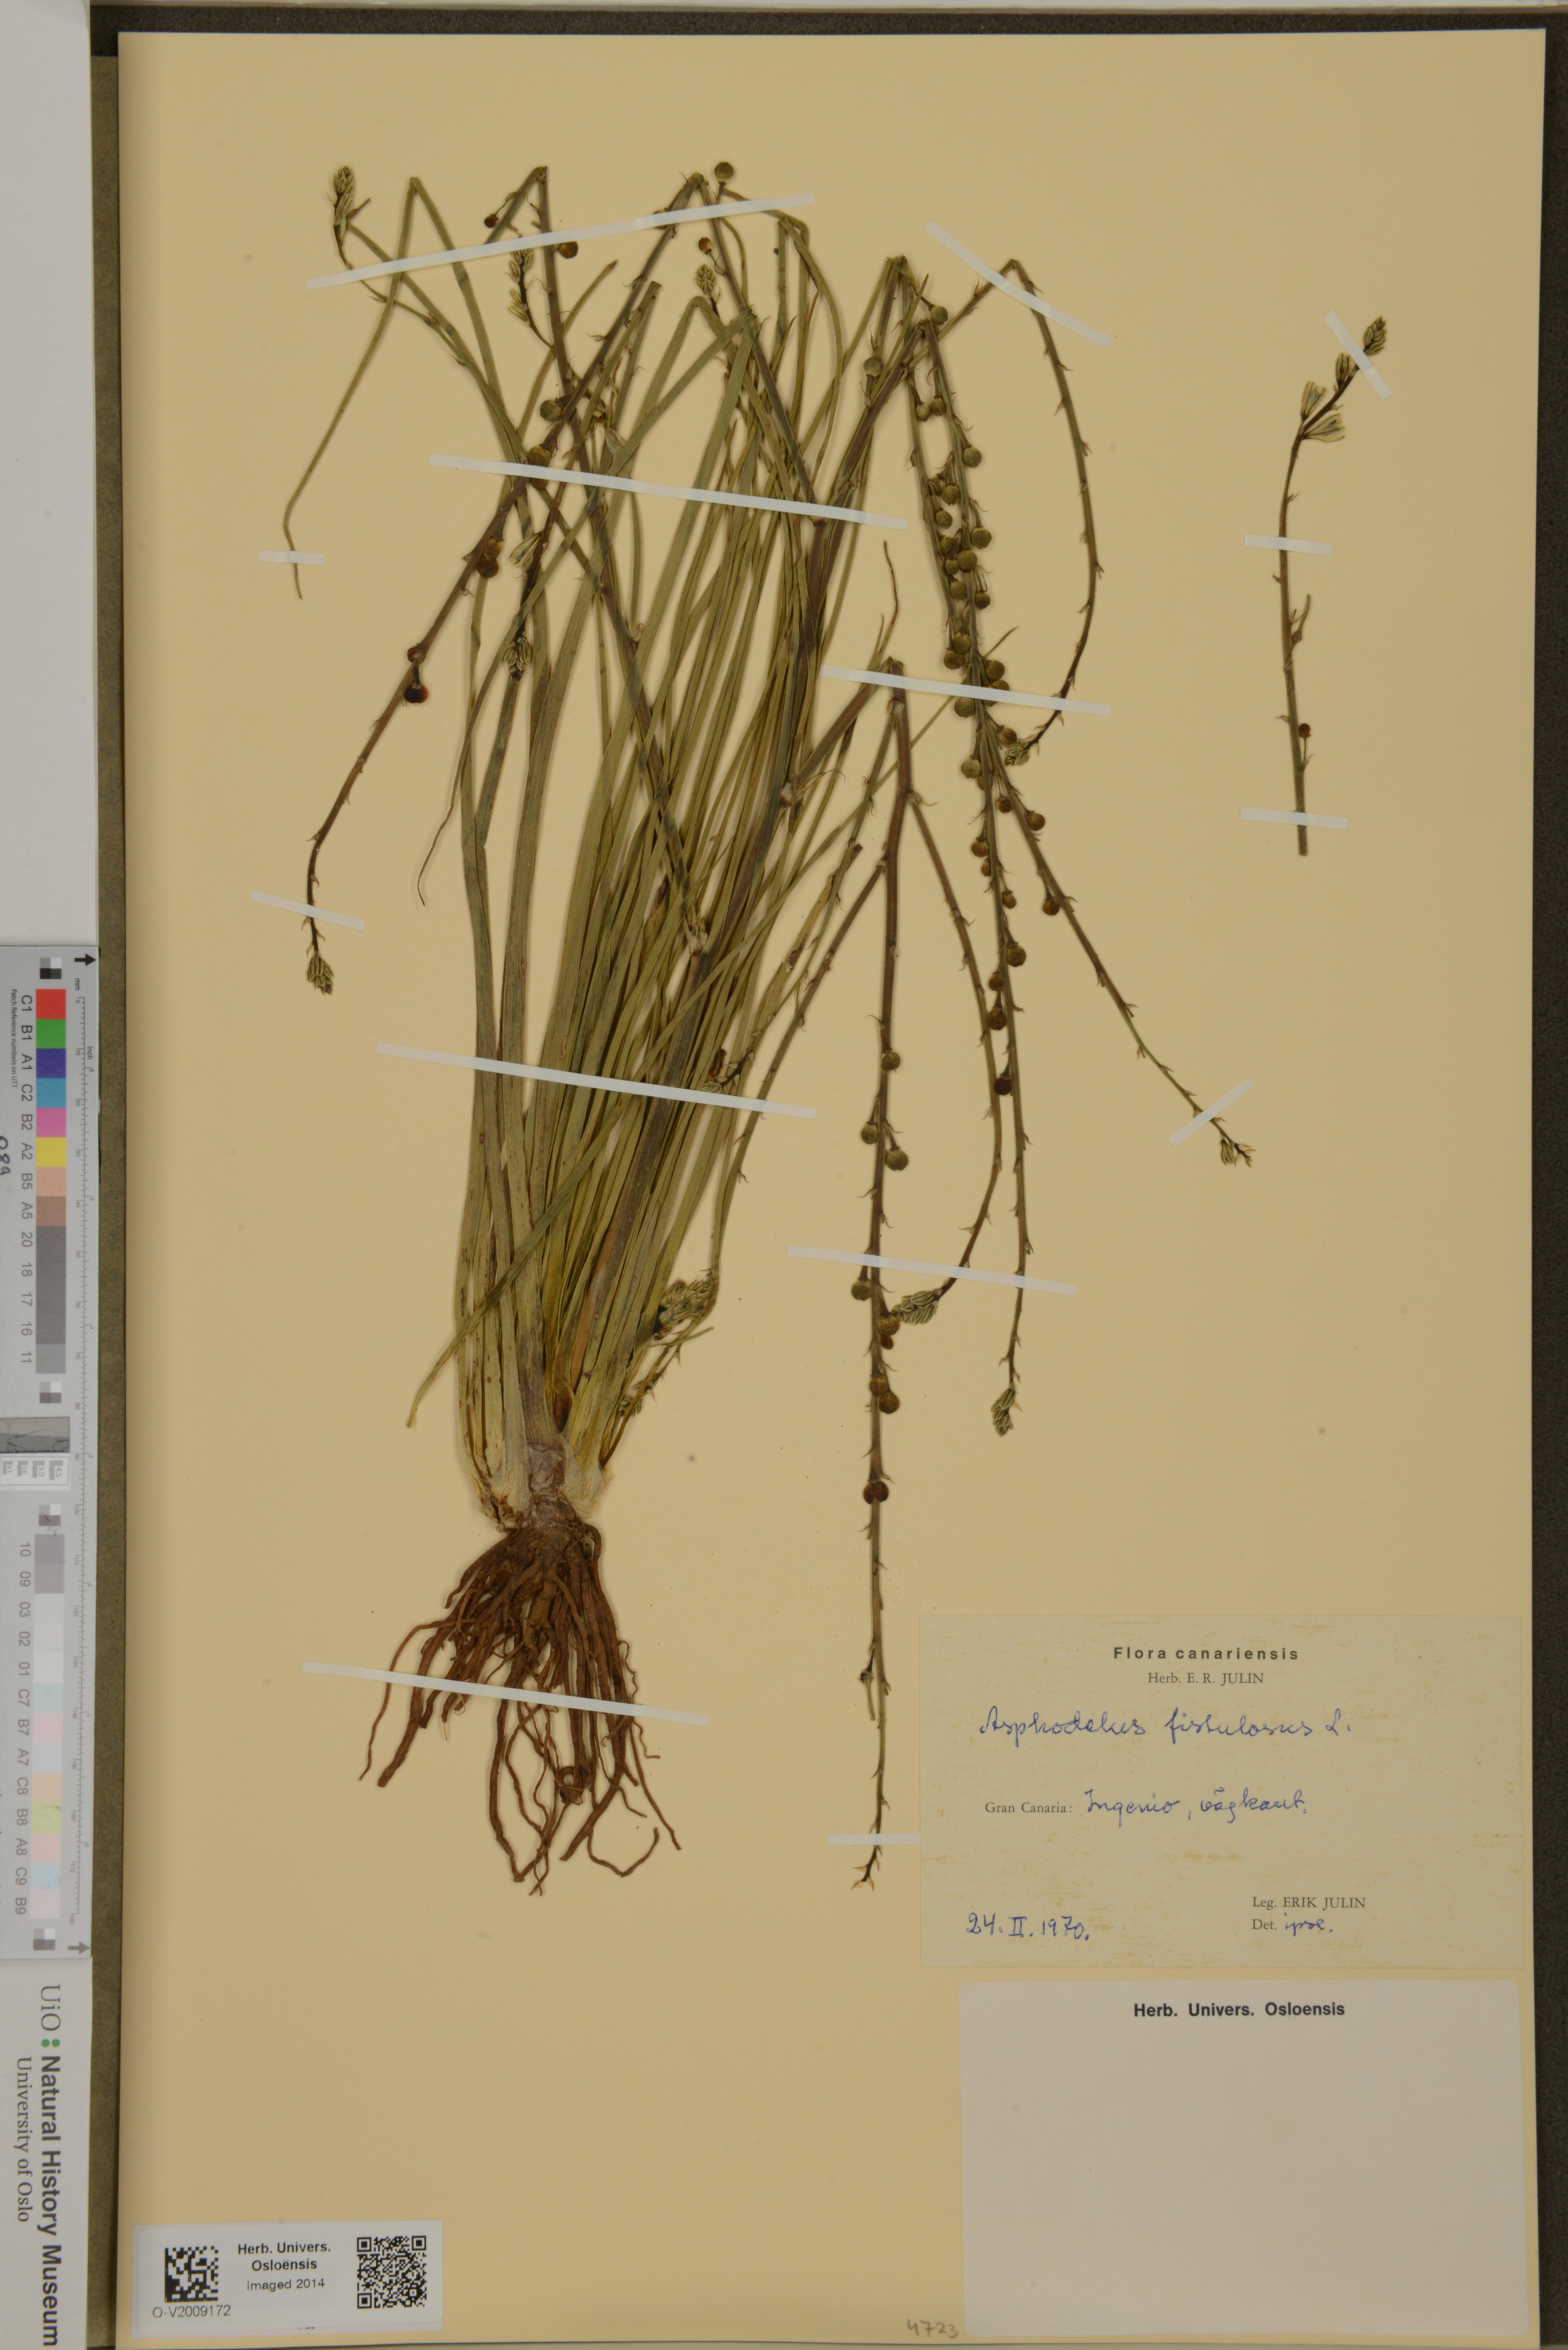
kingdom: Plantae
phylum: Tracheophyta
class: Liliopsida
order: Asparagales
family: Asphodelaceae
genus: Asphodelus
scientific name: Asphodelus fistulosus
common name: Onionweed
